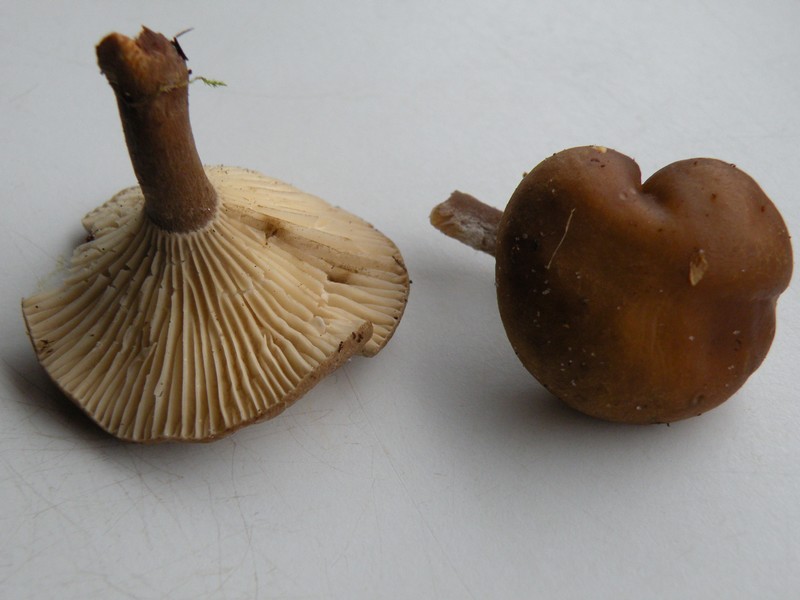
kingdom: Fungi
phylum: Basidiomycota
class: Agaricomycetes
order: Agaricales
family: Hygrophoraceae
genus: Ampulloclitocybe
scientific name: Ampulloclitocybe clavipes
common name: køllefod
